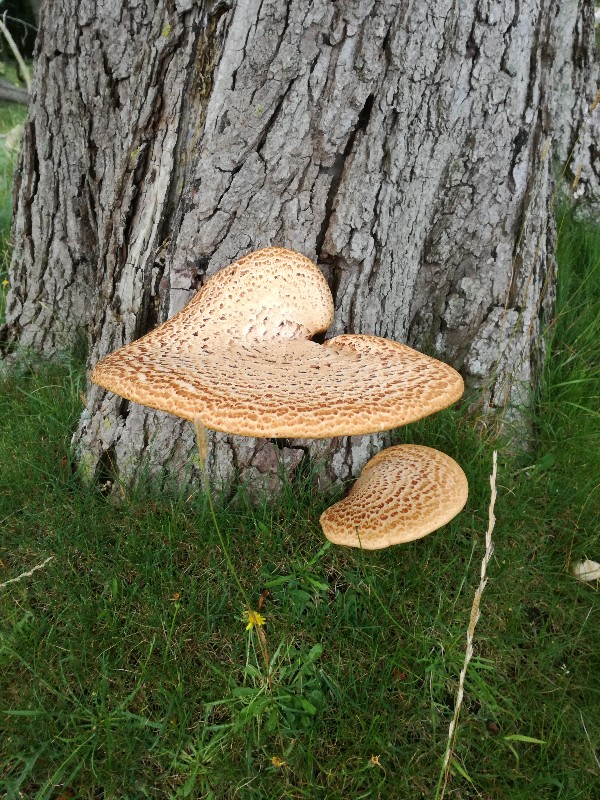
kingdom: Fungi
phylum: Basidiomycota
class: Agaricomycetes
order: Polyporales
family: Polyporaceae
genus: Cerioporus
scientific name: Cerioporus squamosus
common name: skællet stilkporesvamp
